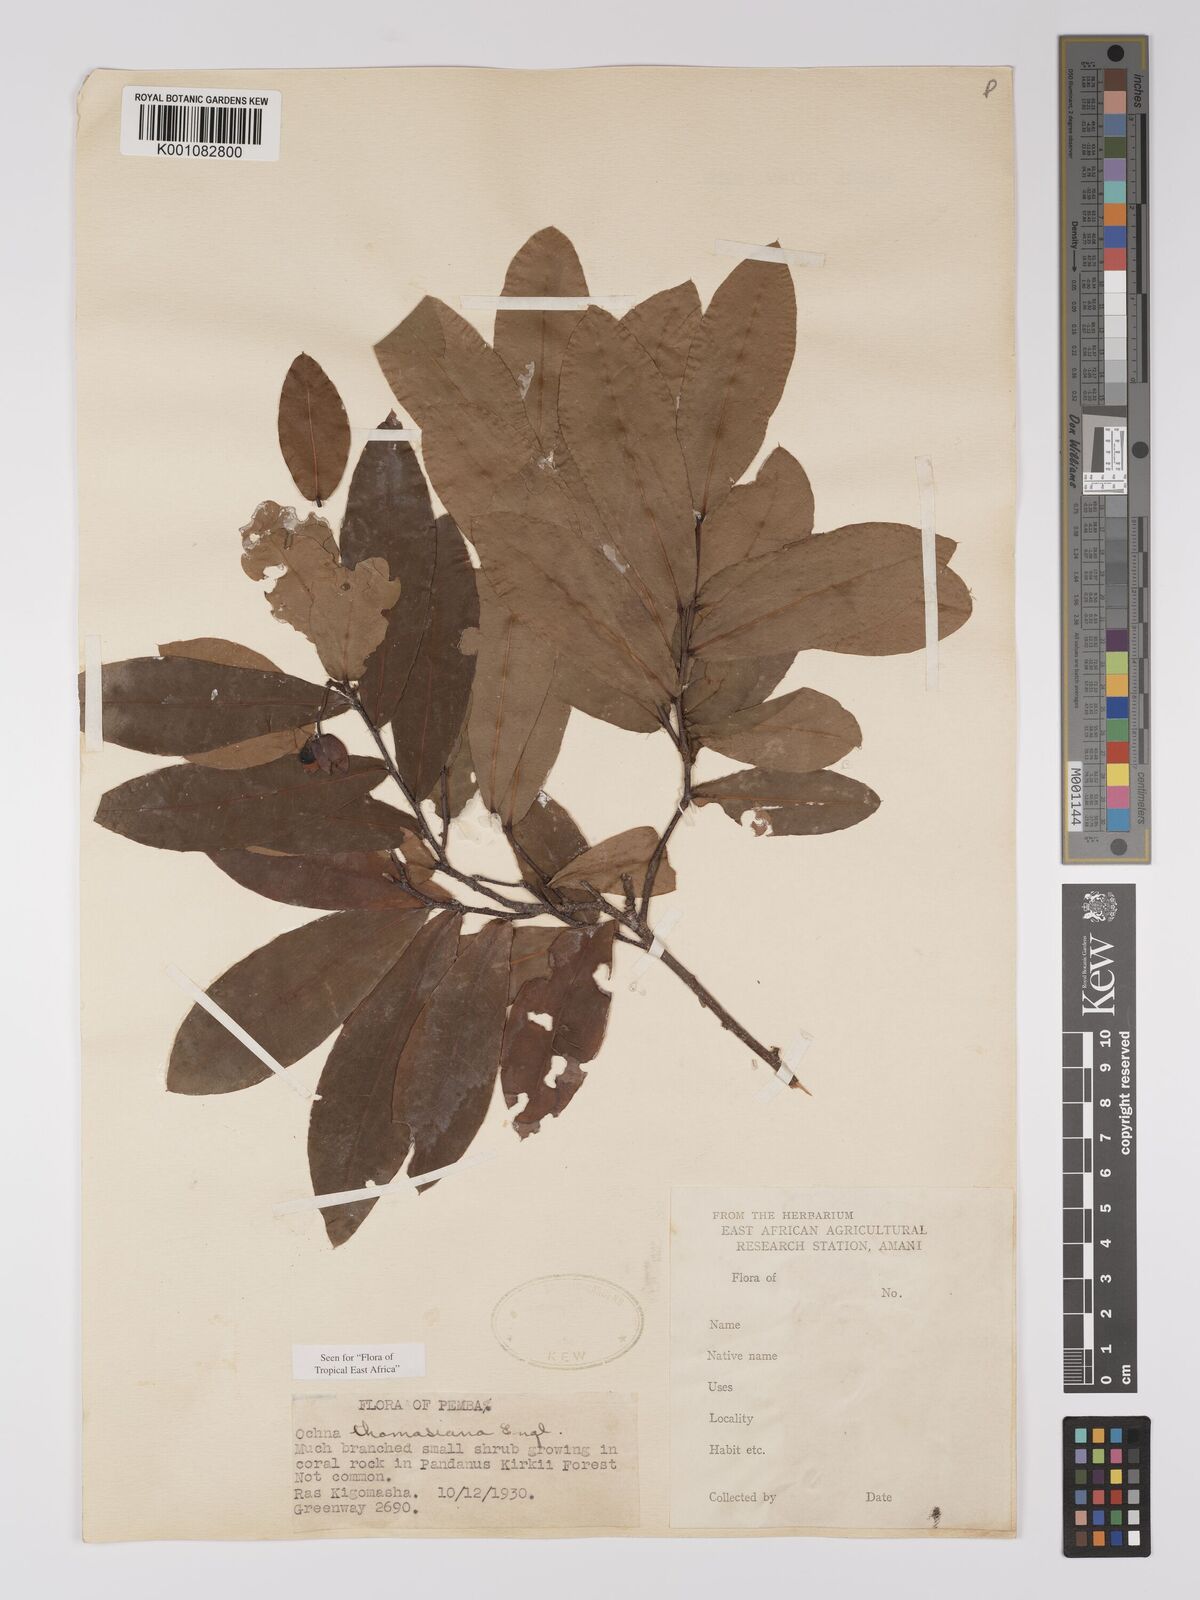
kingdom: Plantae
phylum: Tracheophyta
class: Magnoliopsida
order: Malpighiales
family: Ochnaceae
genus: Ochna
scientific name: Ochna thomasiana
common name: Thomas' bird's-eye bush
